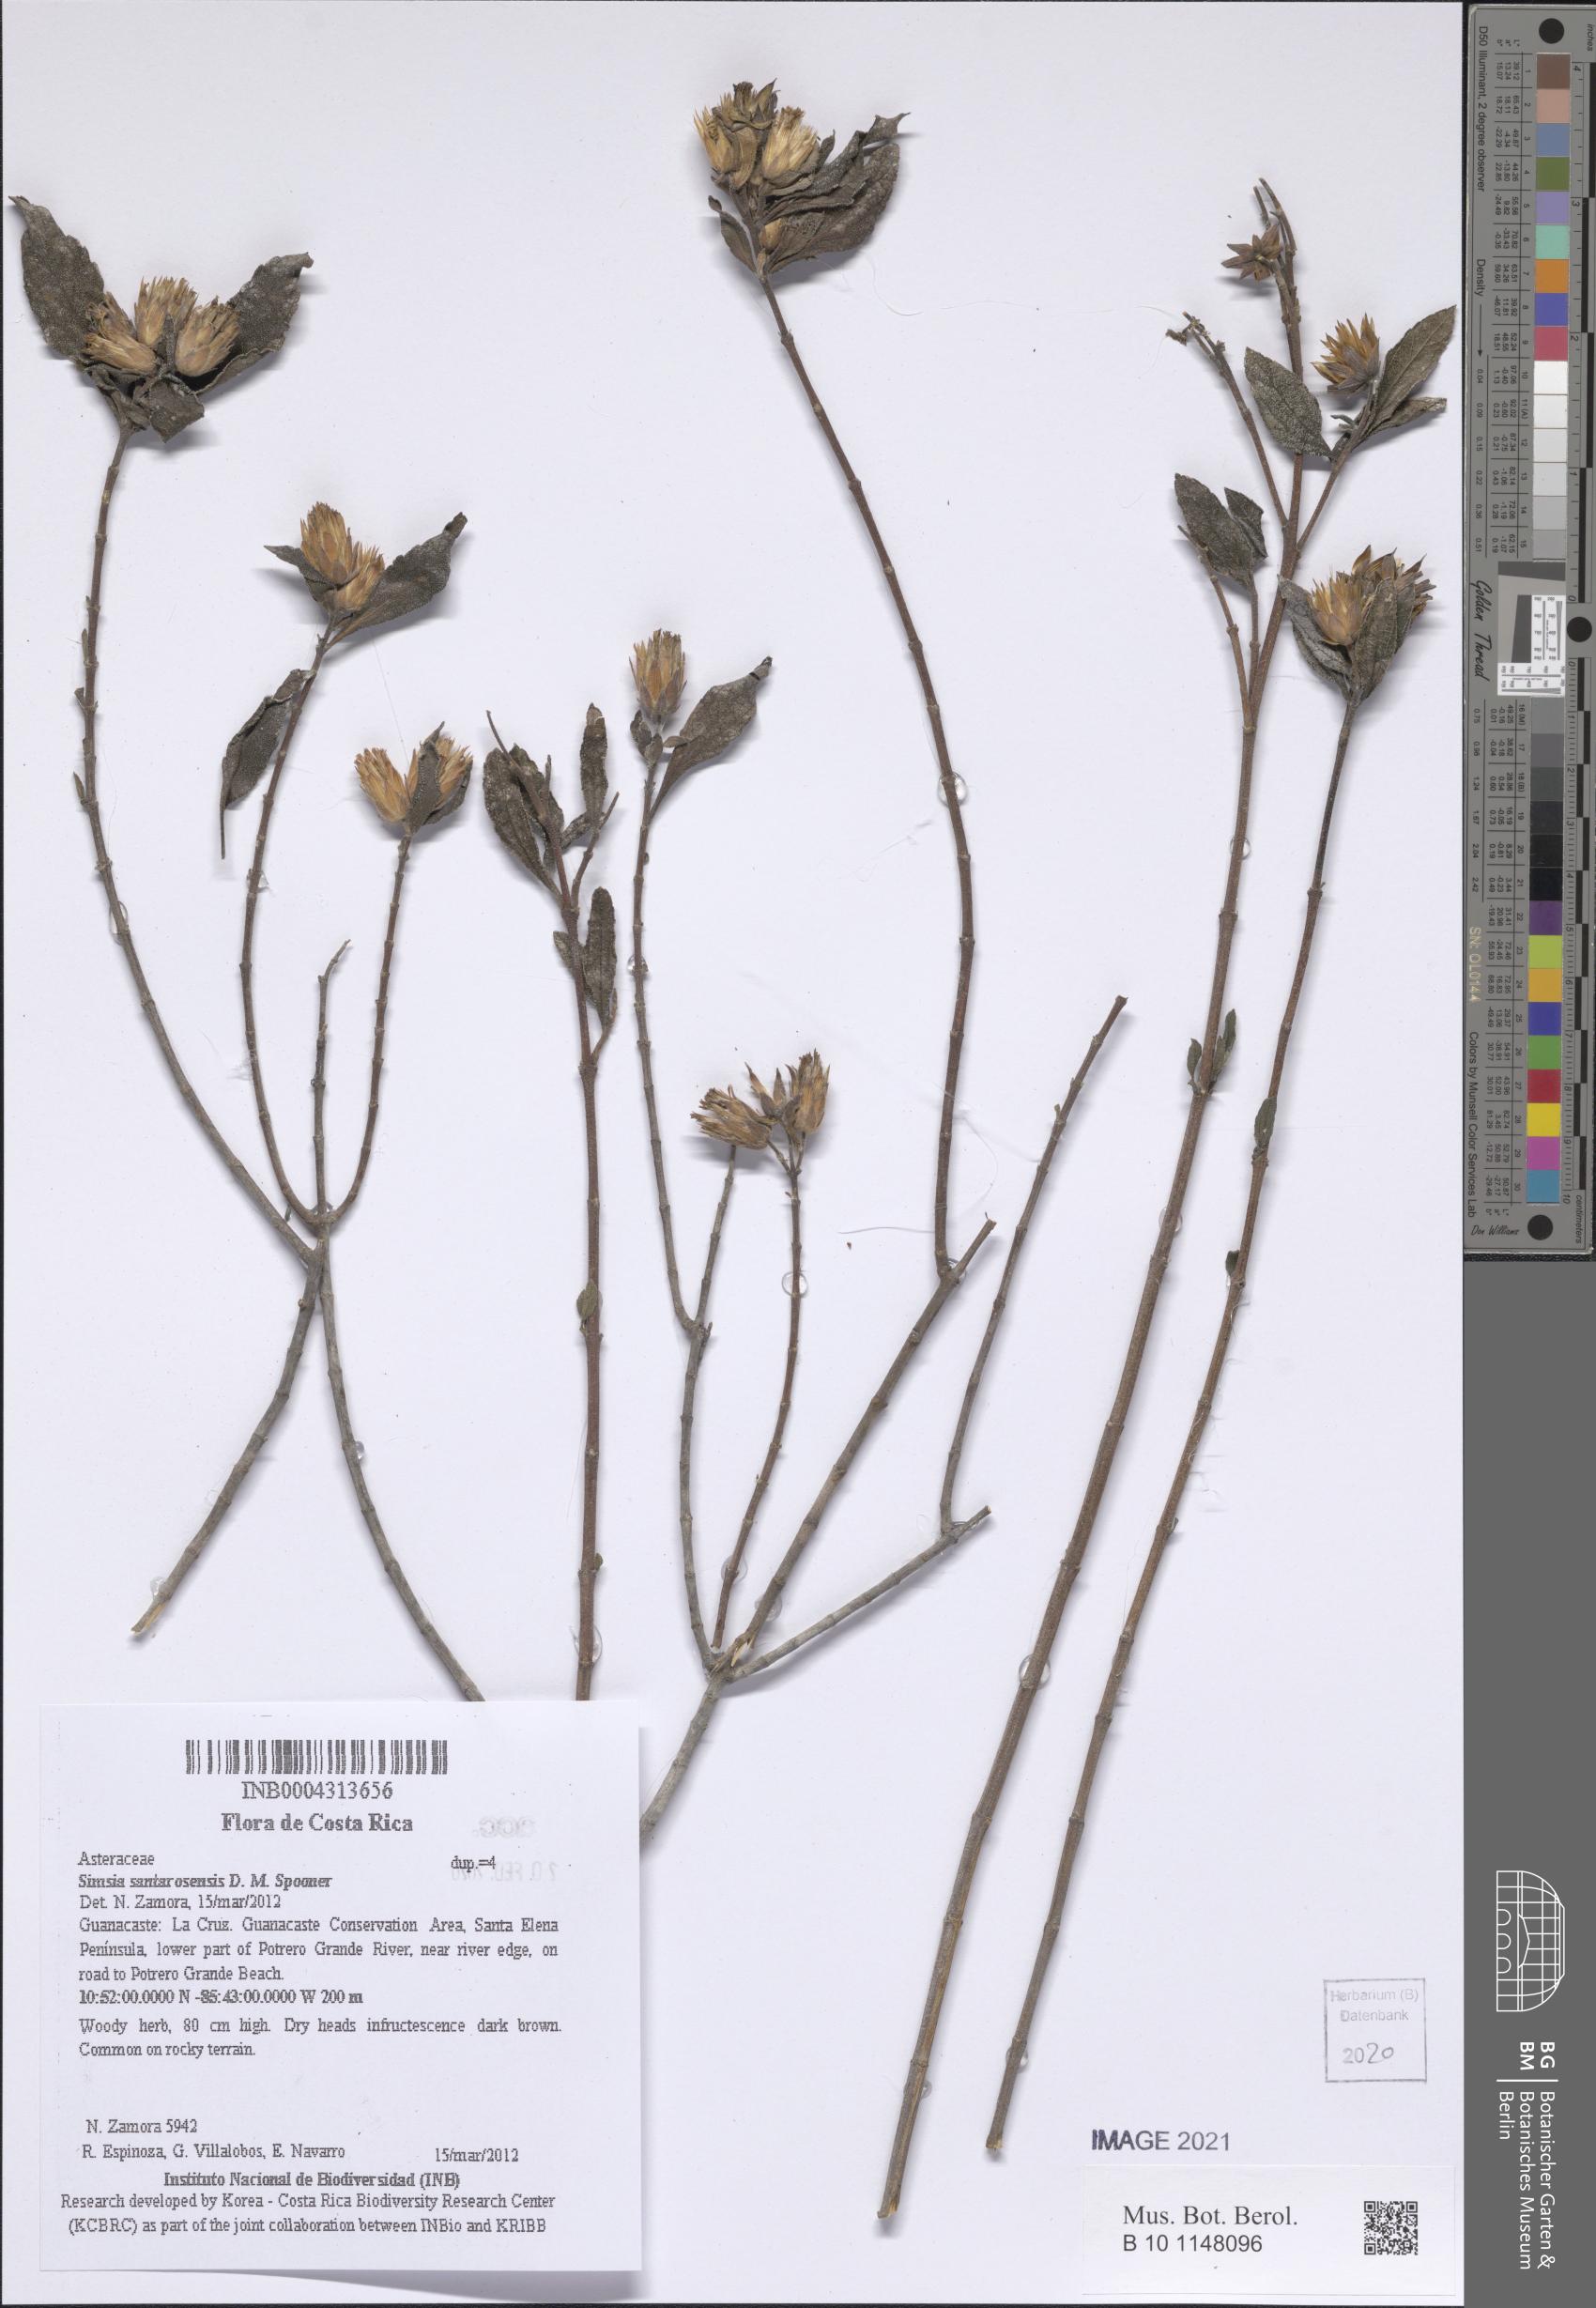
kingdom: Plantae
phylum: Tracheophyta
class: Magnoliopsida
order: Asterales
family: Asteraceae
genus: Simsia
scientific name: Simsia santarosensis
